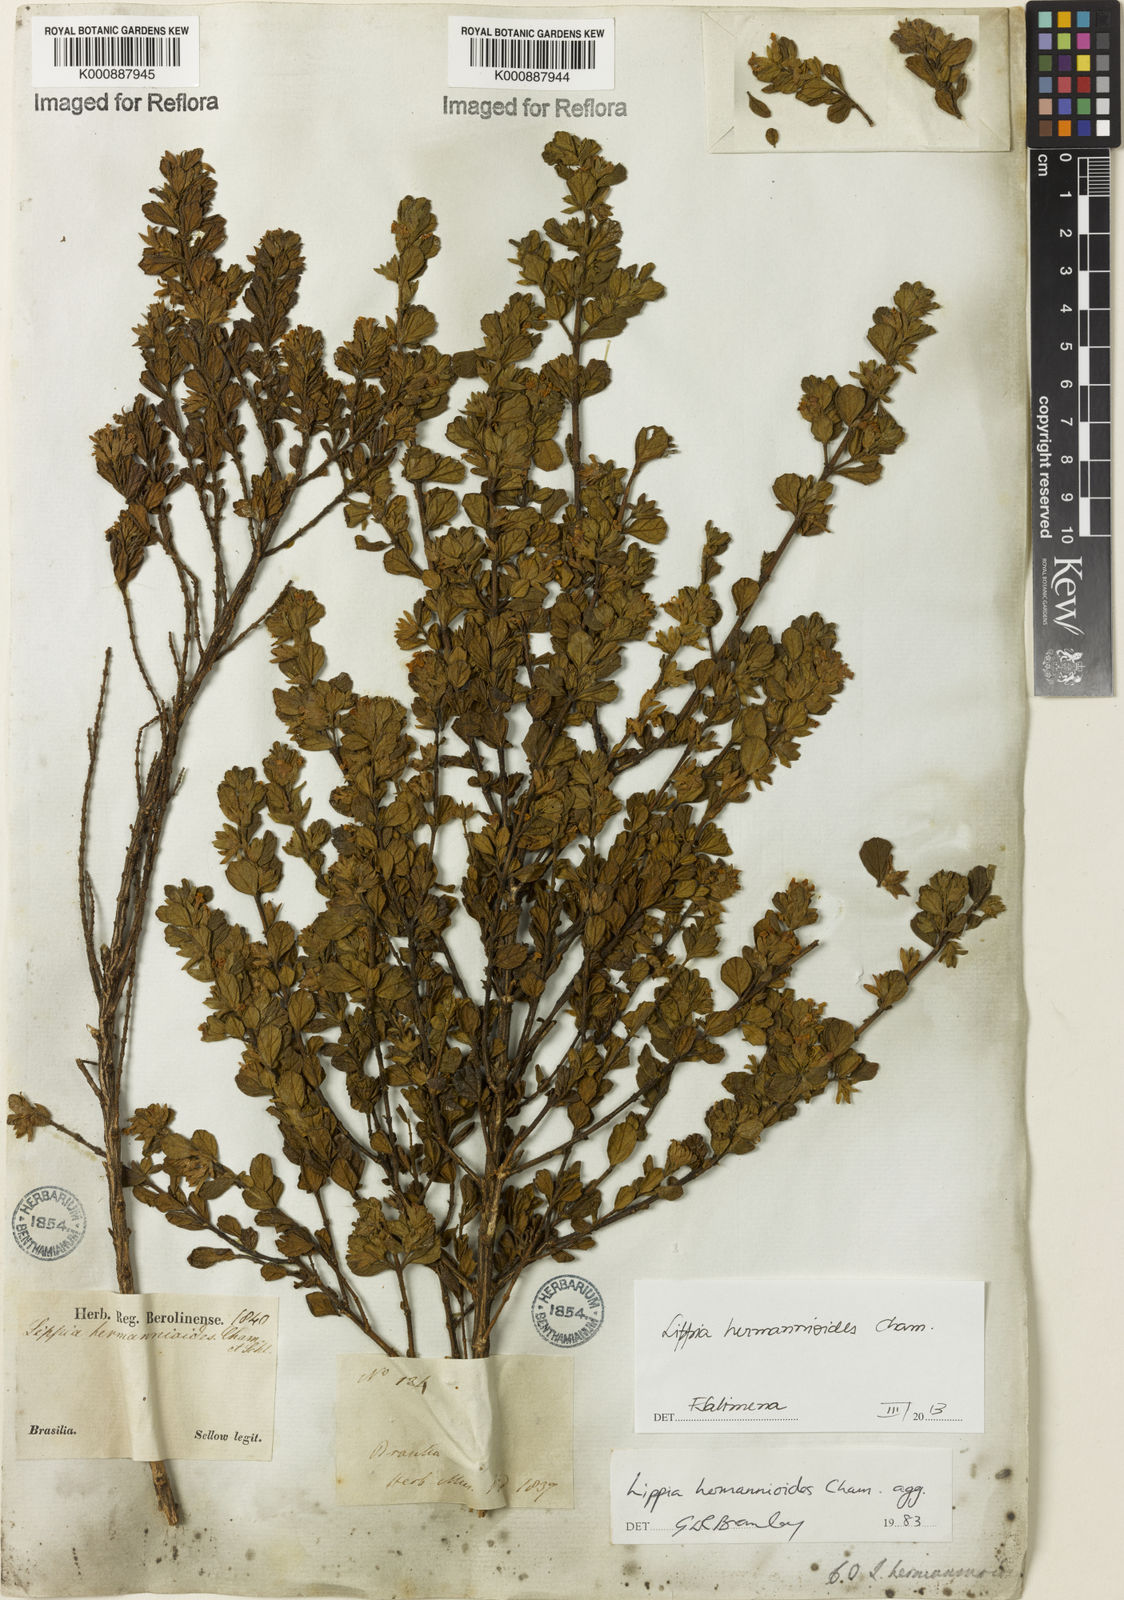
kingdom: Plantae
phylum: Tracheophyta
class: Magnoliopsida
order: Lamiales
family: Verbenaceae
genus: Lippia
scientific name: Lippia hermannioides
